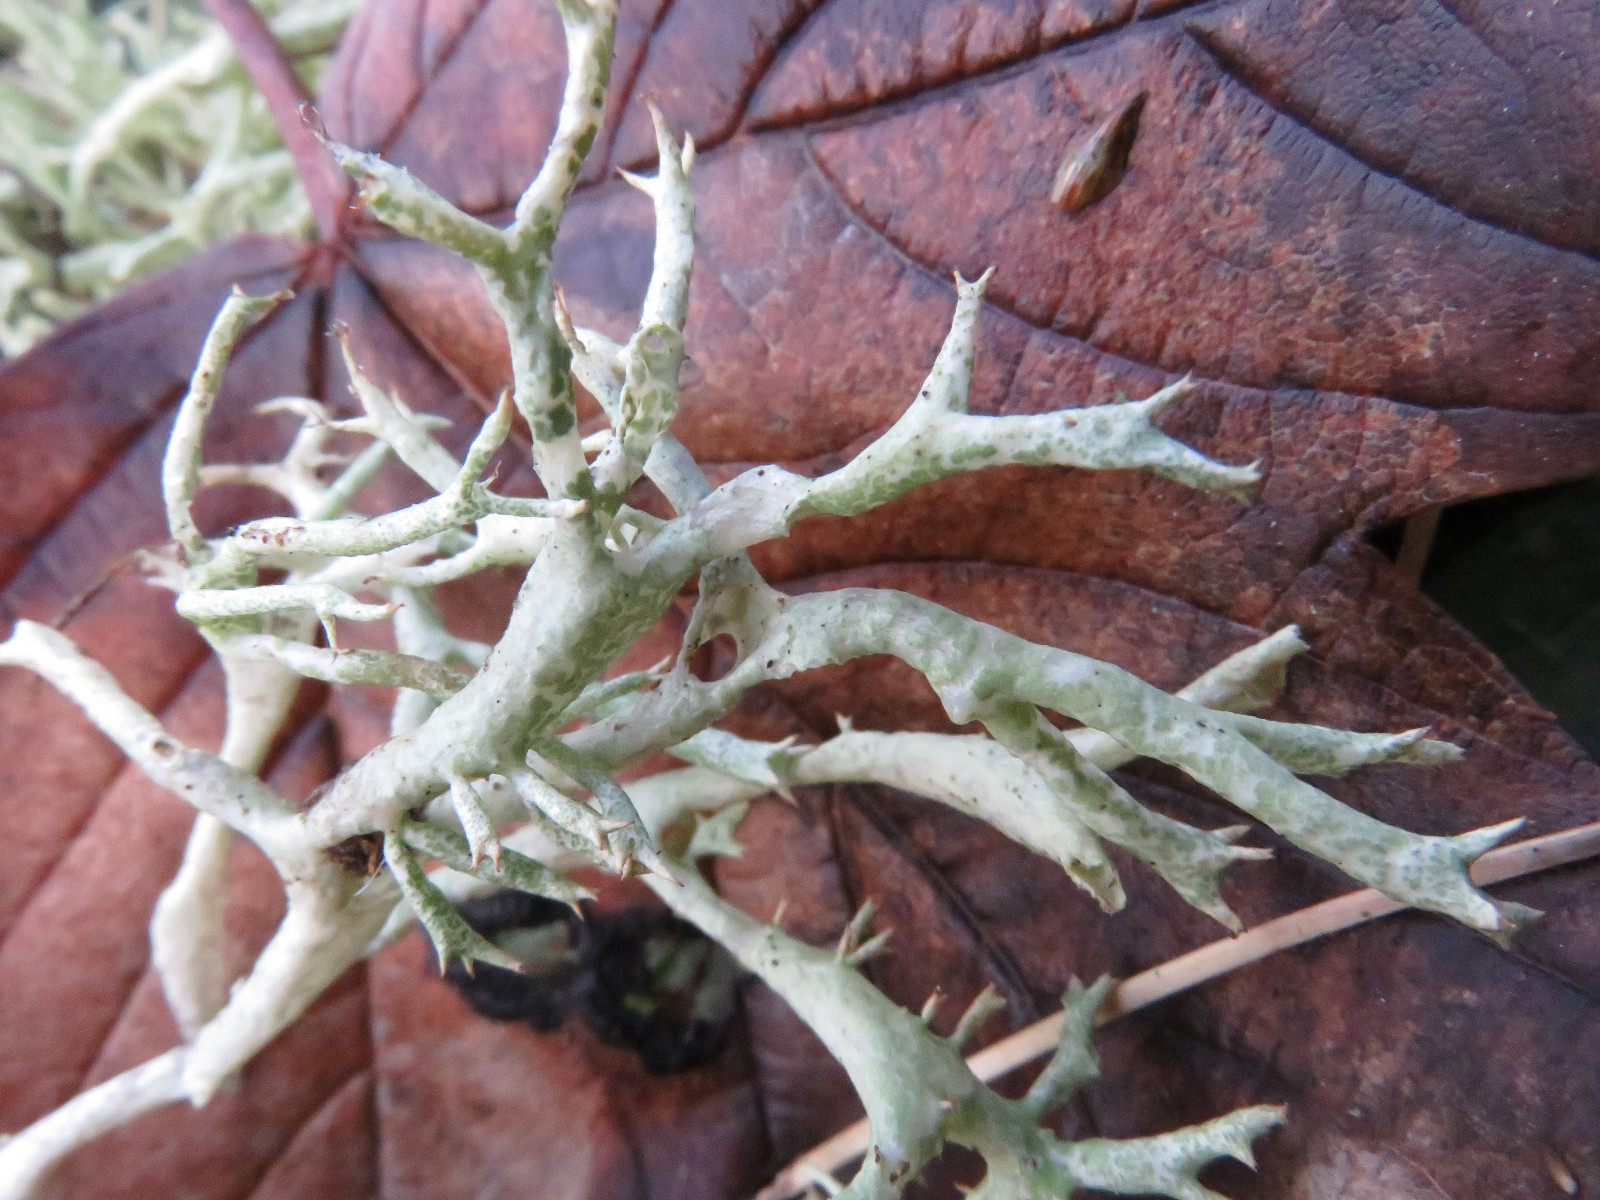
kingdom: Fungi
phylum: Ascomycota
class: Lecanoromycetes
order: Lecanorales
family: Cladoniaceae
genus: Cladonia
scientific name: Cladonia uncialis
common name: pigget bægerlav
